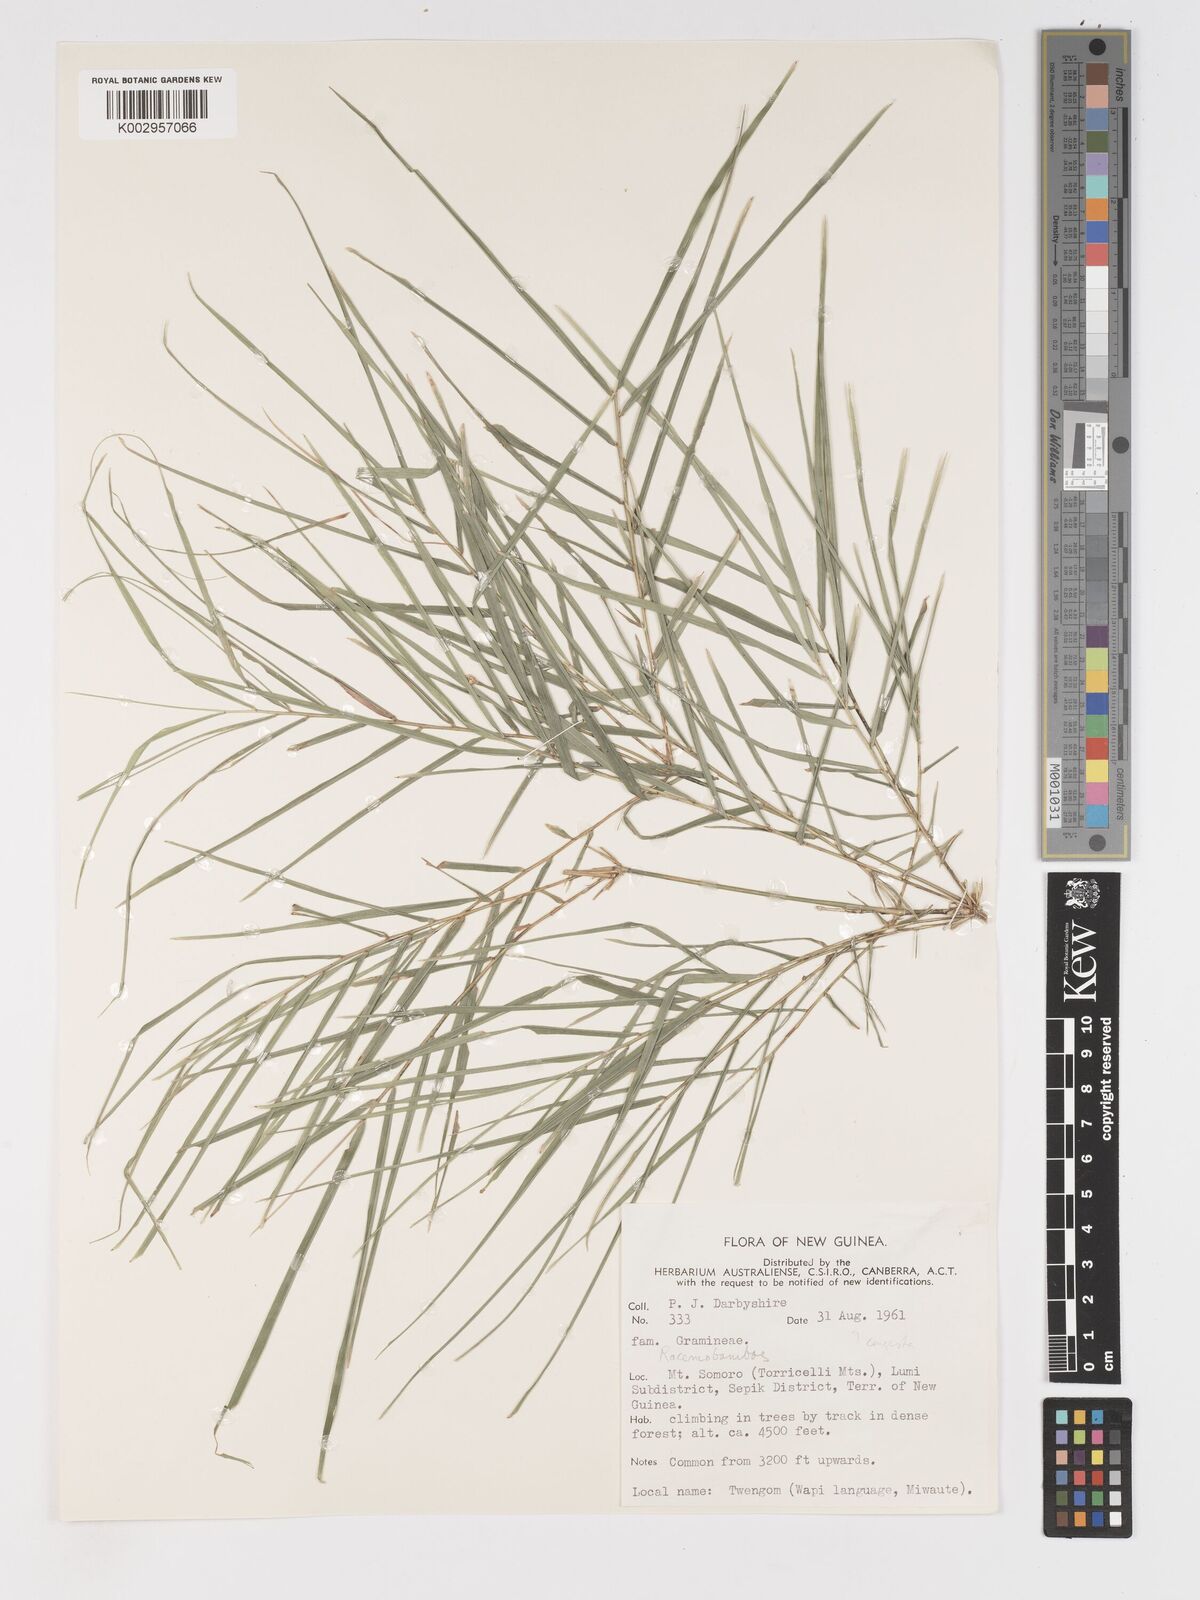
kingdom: Plantae
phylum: Tracheophyta
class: Liliopsida
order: Poales
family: Poaceae
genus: Racemobambos
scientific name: Racemobambos
